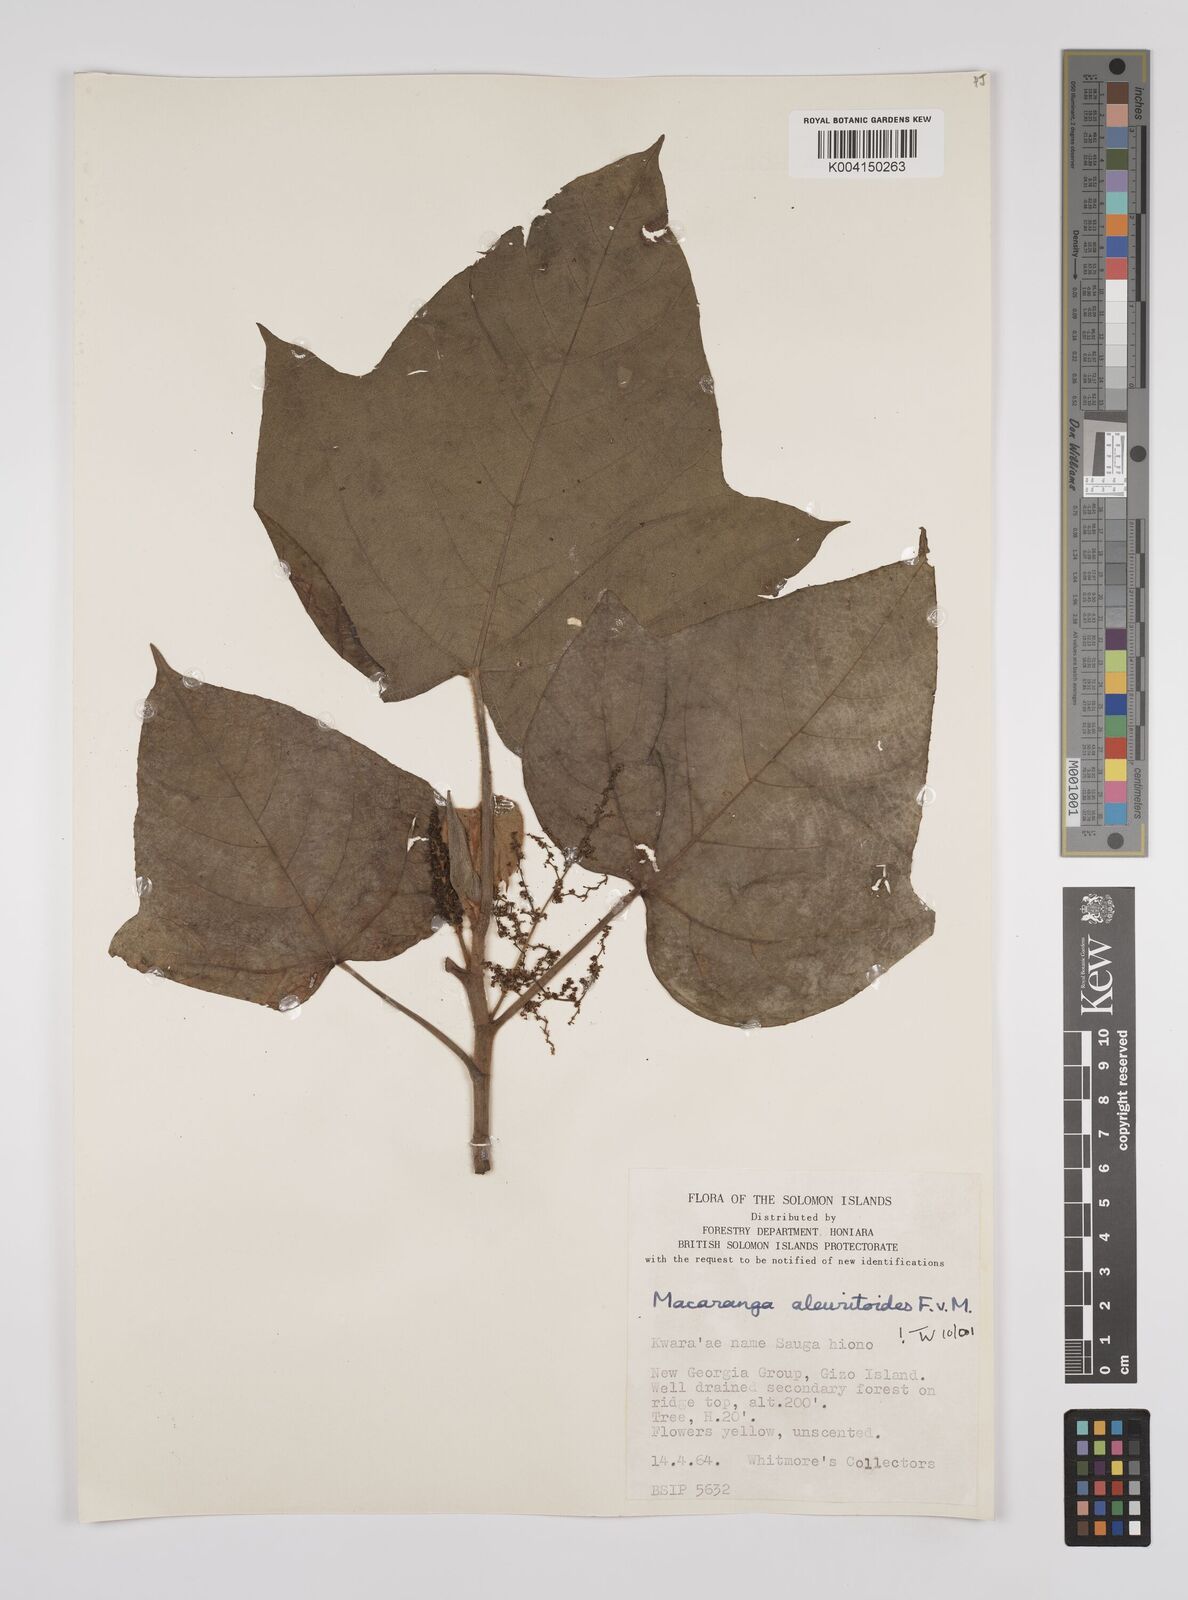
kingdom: Plantae
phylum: Tracheophyta
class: Magnoliopsida
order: Malpighiales
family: Euphorbiaceae
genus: Macaranga
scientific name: Macaranga aleuritoides
